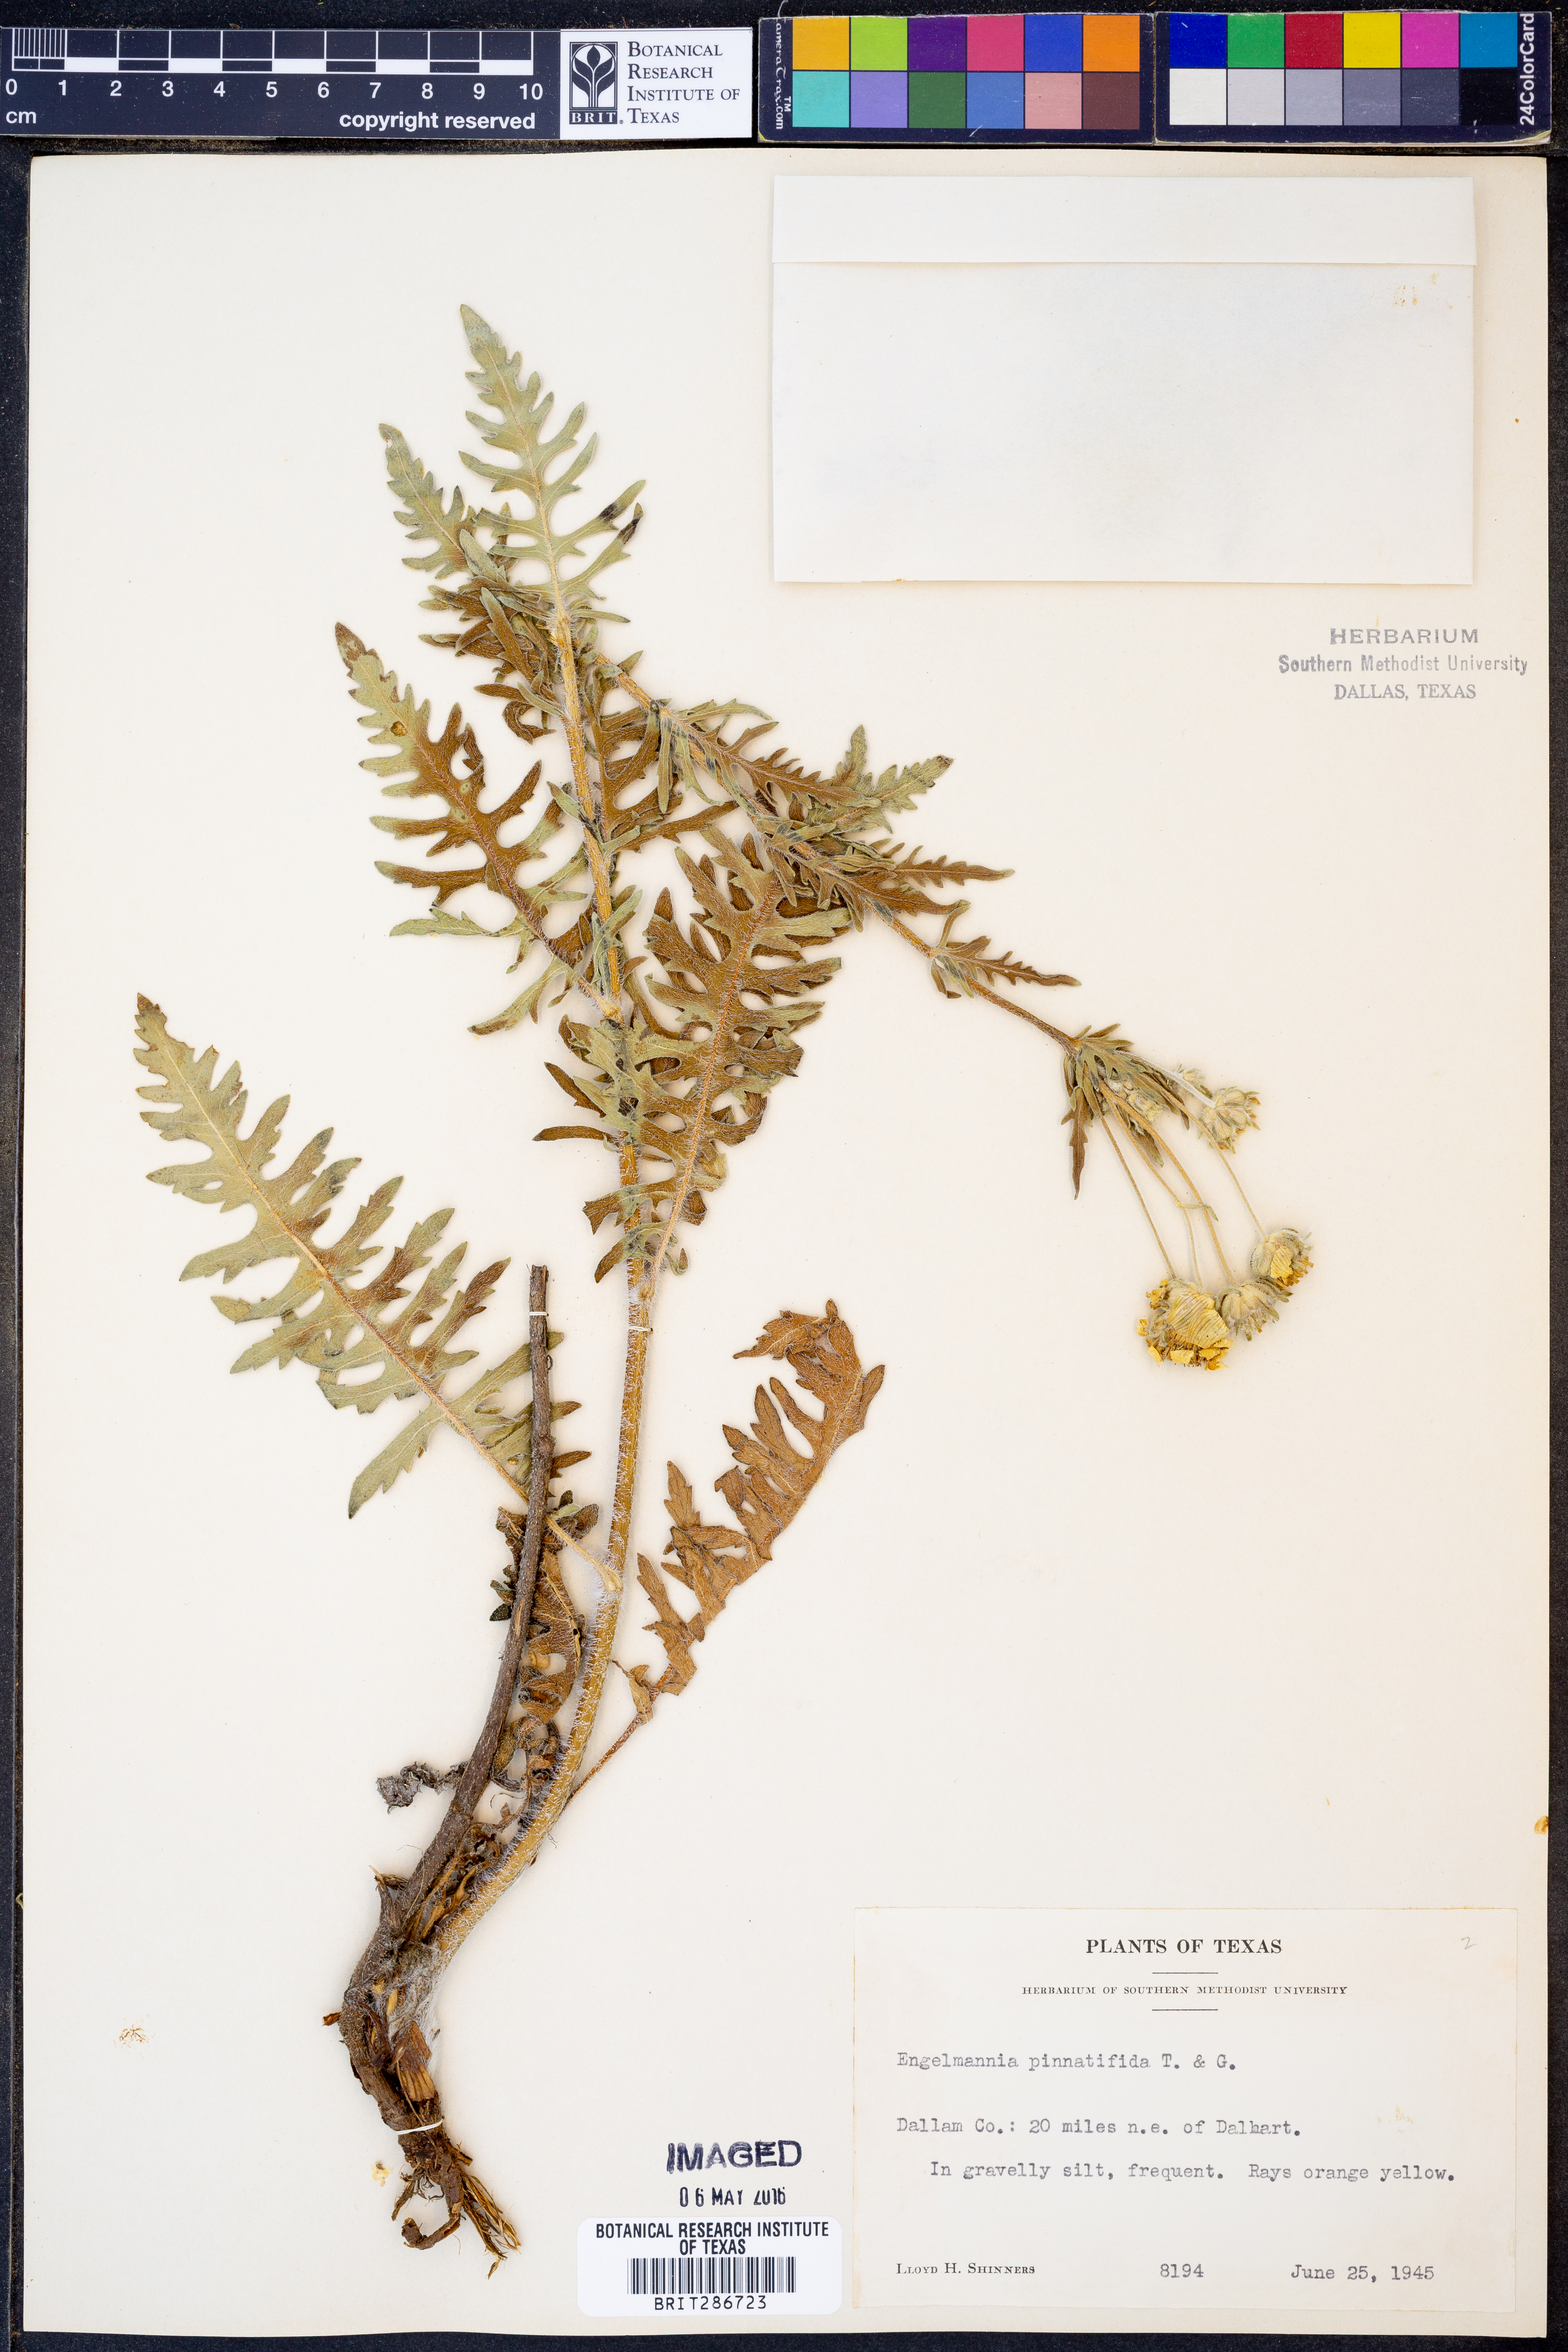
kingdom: Plantae
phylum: Tracheophyta
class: Magnoliopsida
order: Asterales
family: Asteraceae
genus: Engelmannia
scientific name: Engelmannia peristenia
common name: Engelmann's daisy
